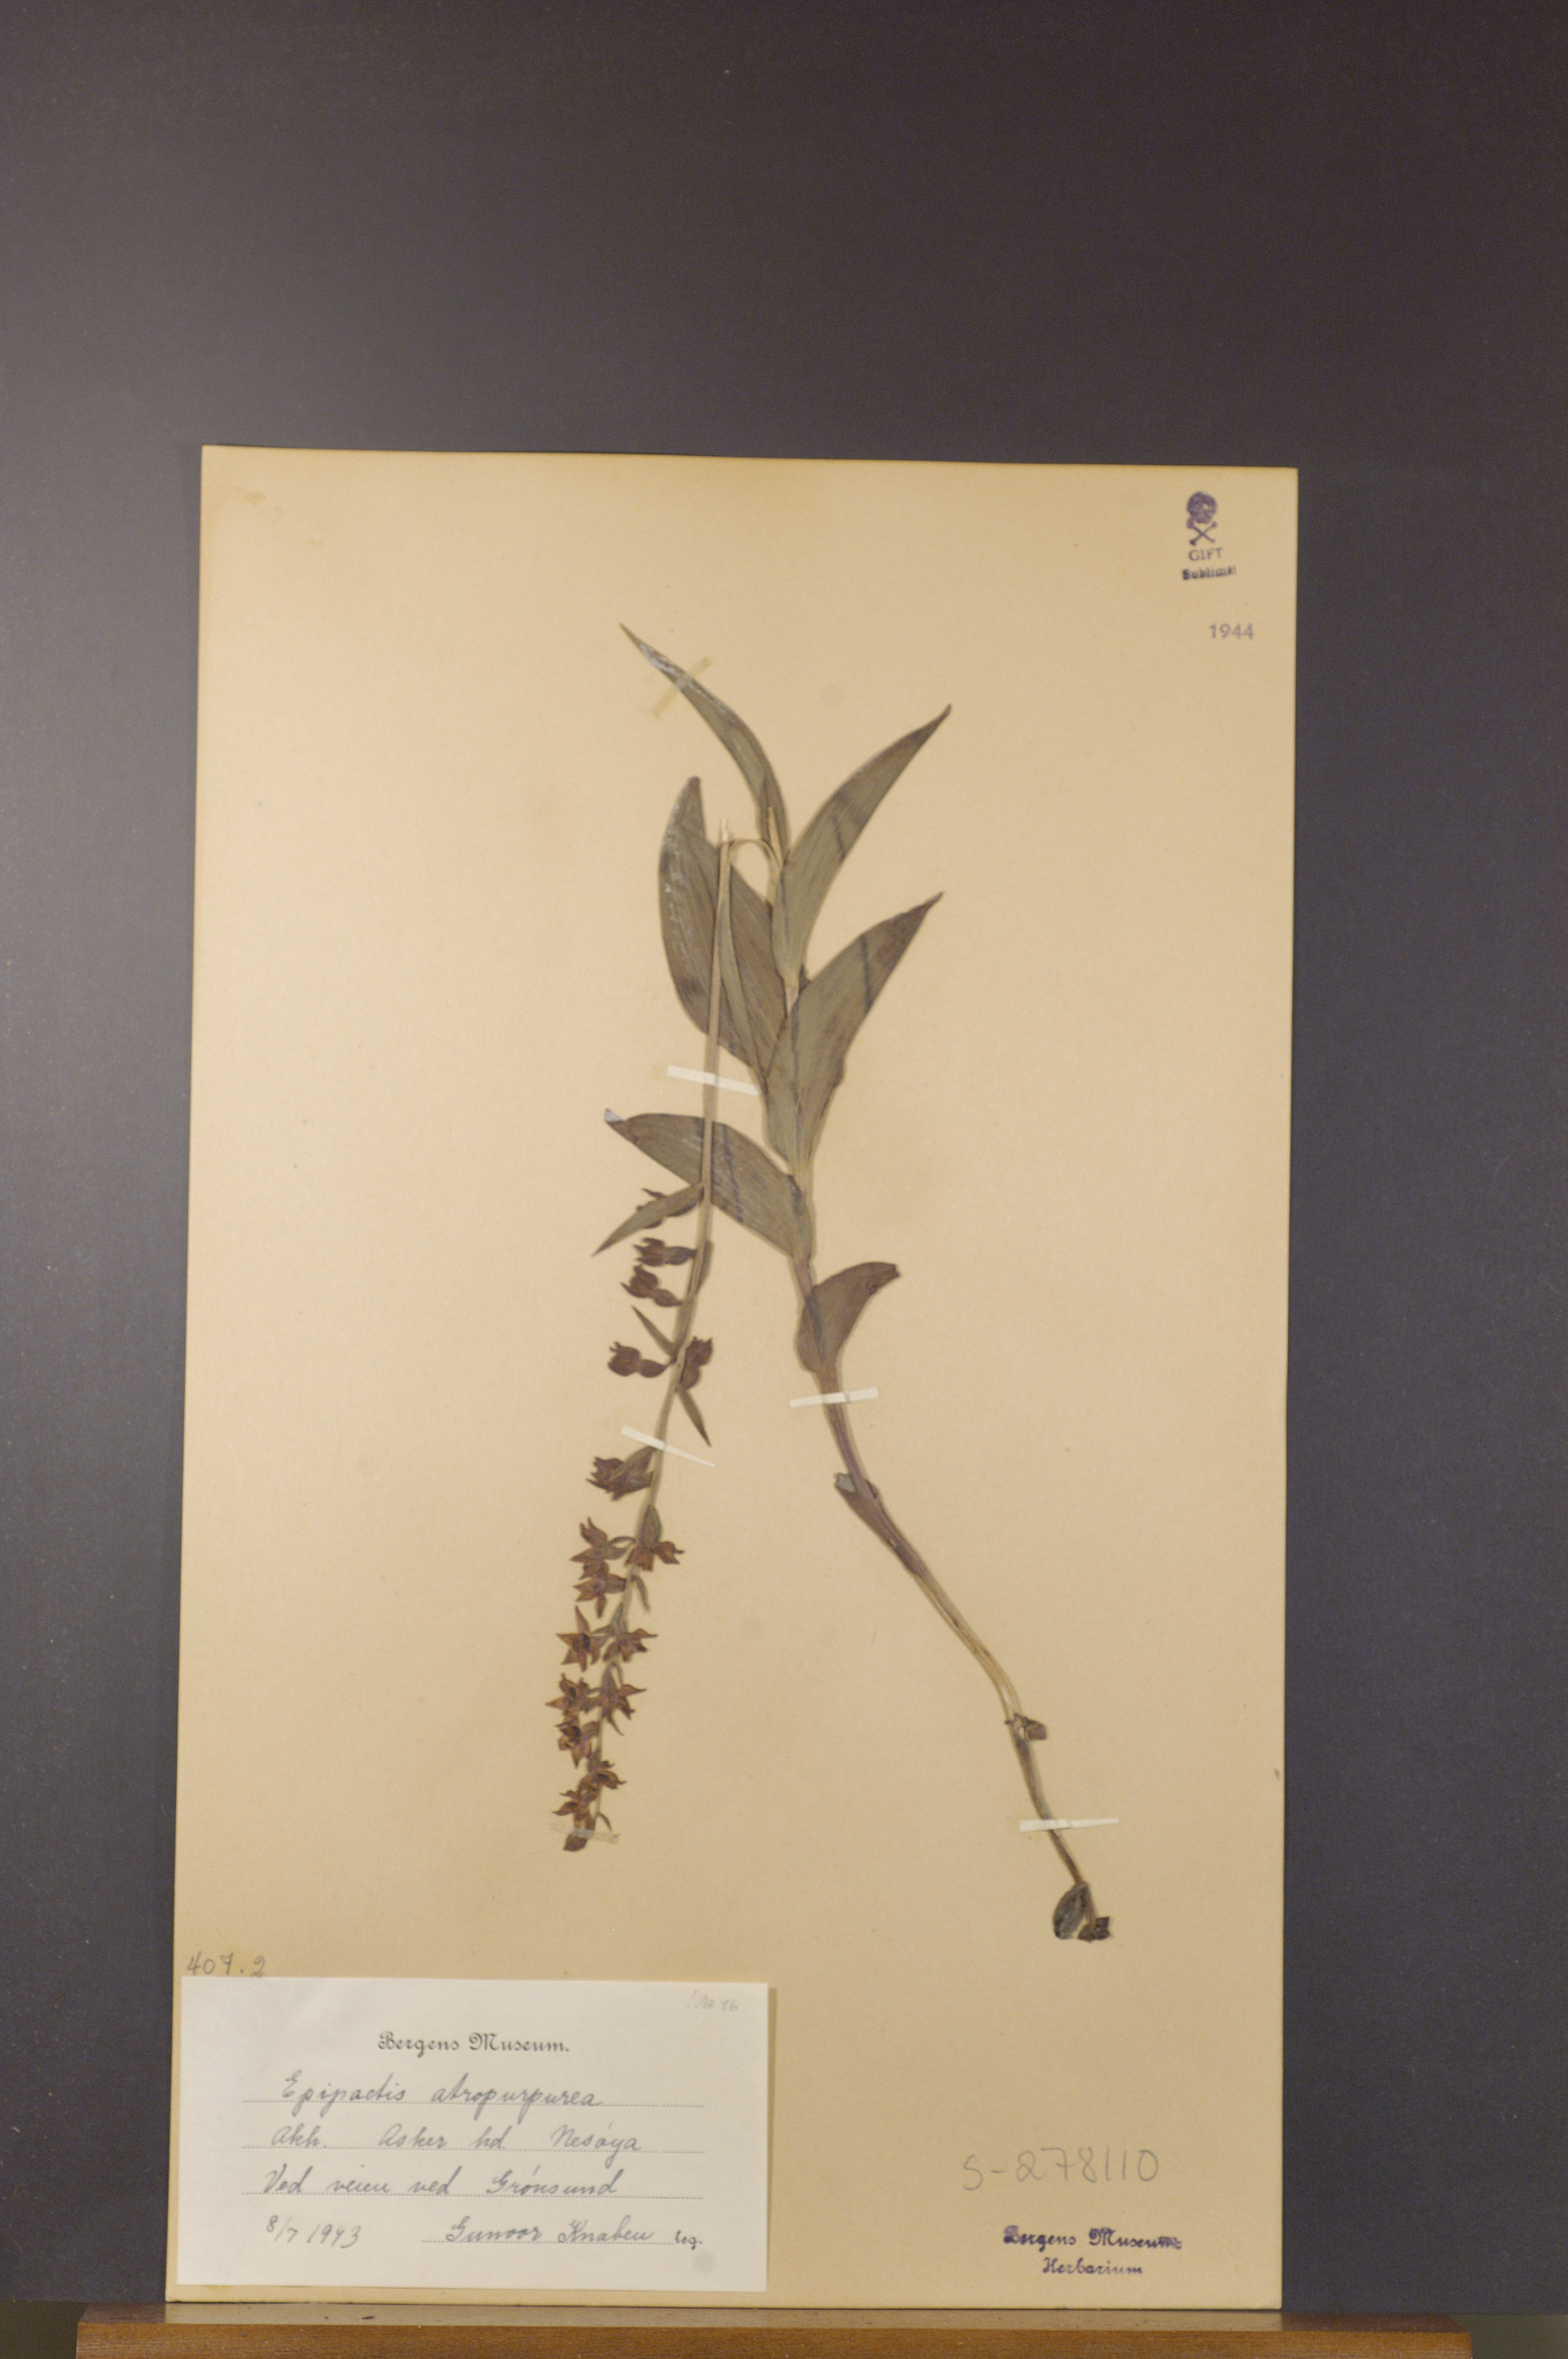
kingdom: Plantae
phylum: Tracheophyta
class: Liliopsida
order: Asparagales
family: Orchidaceae
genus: Epipactis
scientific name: Epipactis atrorubens
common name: Dark-red helleborine
